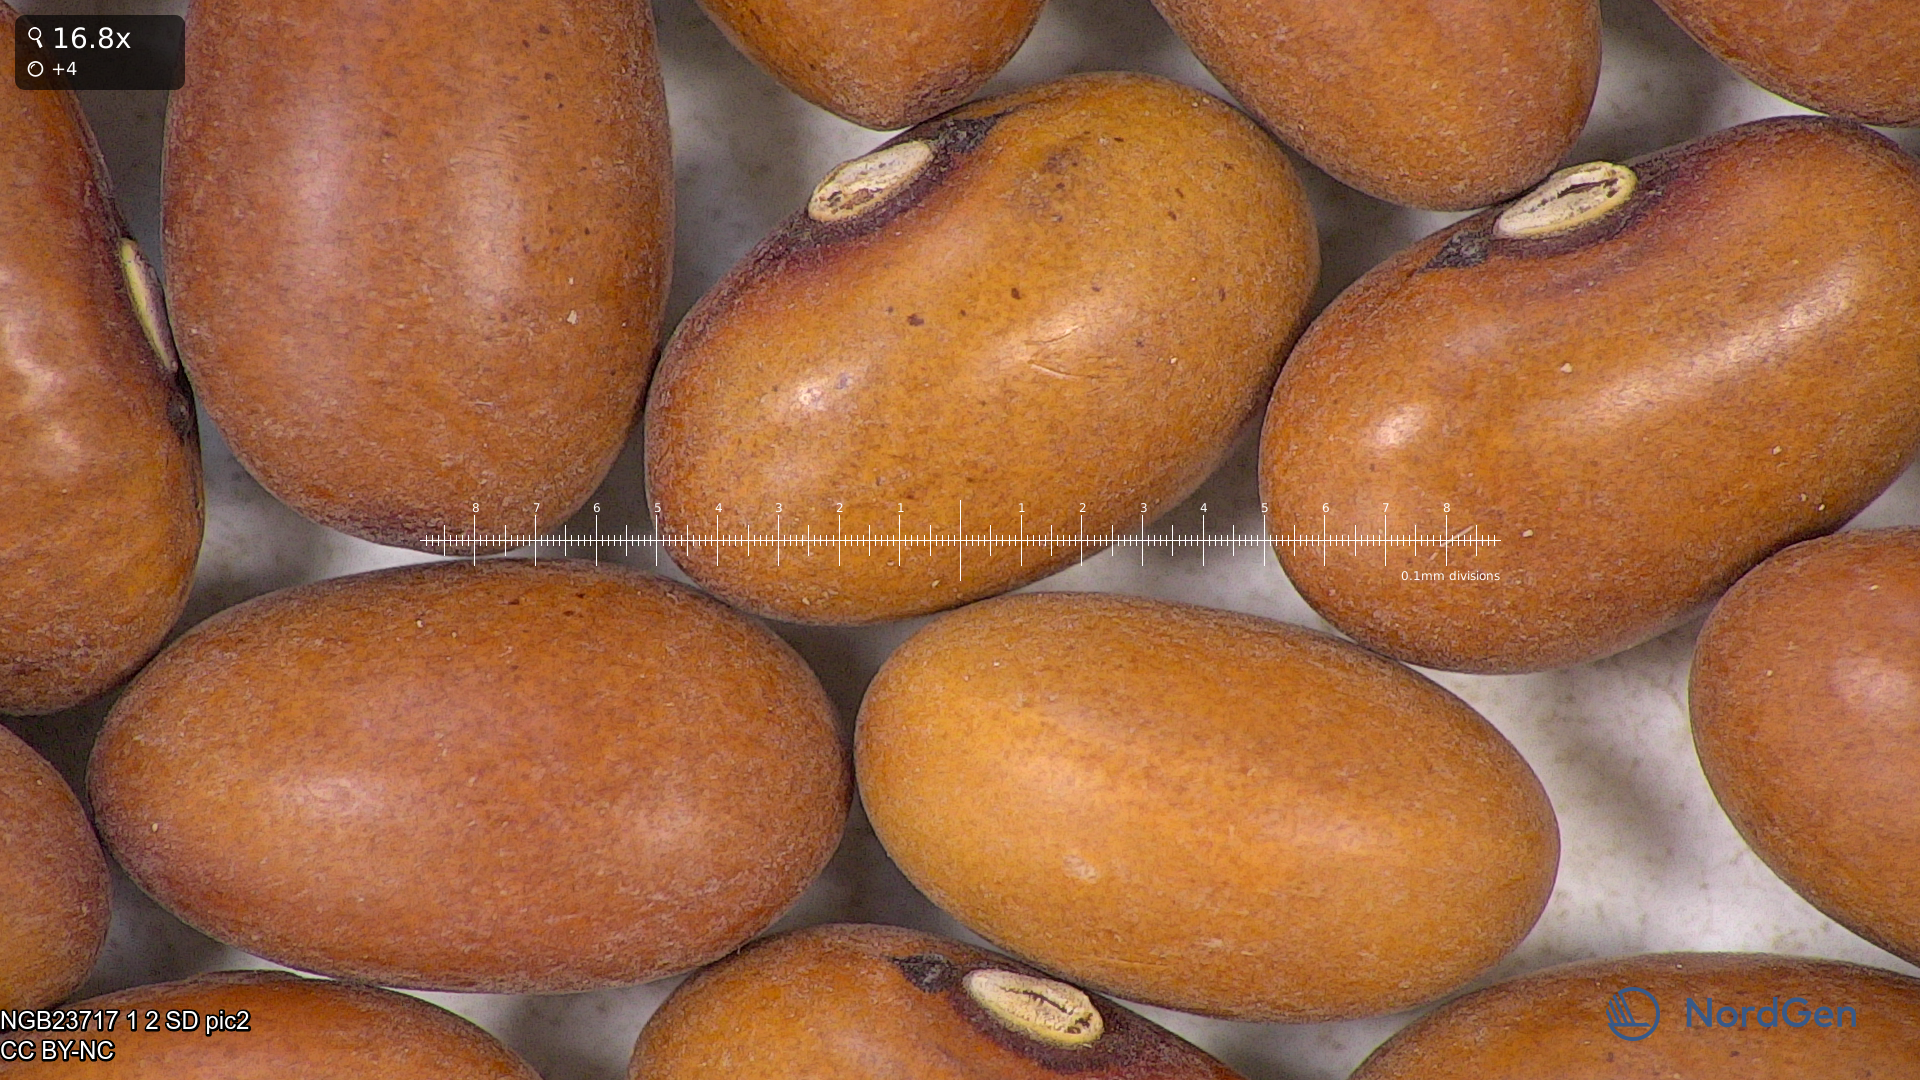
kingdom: Plantae
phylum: Tracheophyta
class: Magnoliopsida
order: Fabales
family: Fabaceae
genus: Phaseolus
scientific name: Phaseolus vulgaris
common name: Bean
